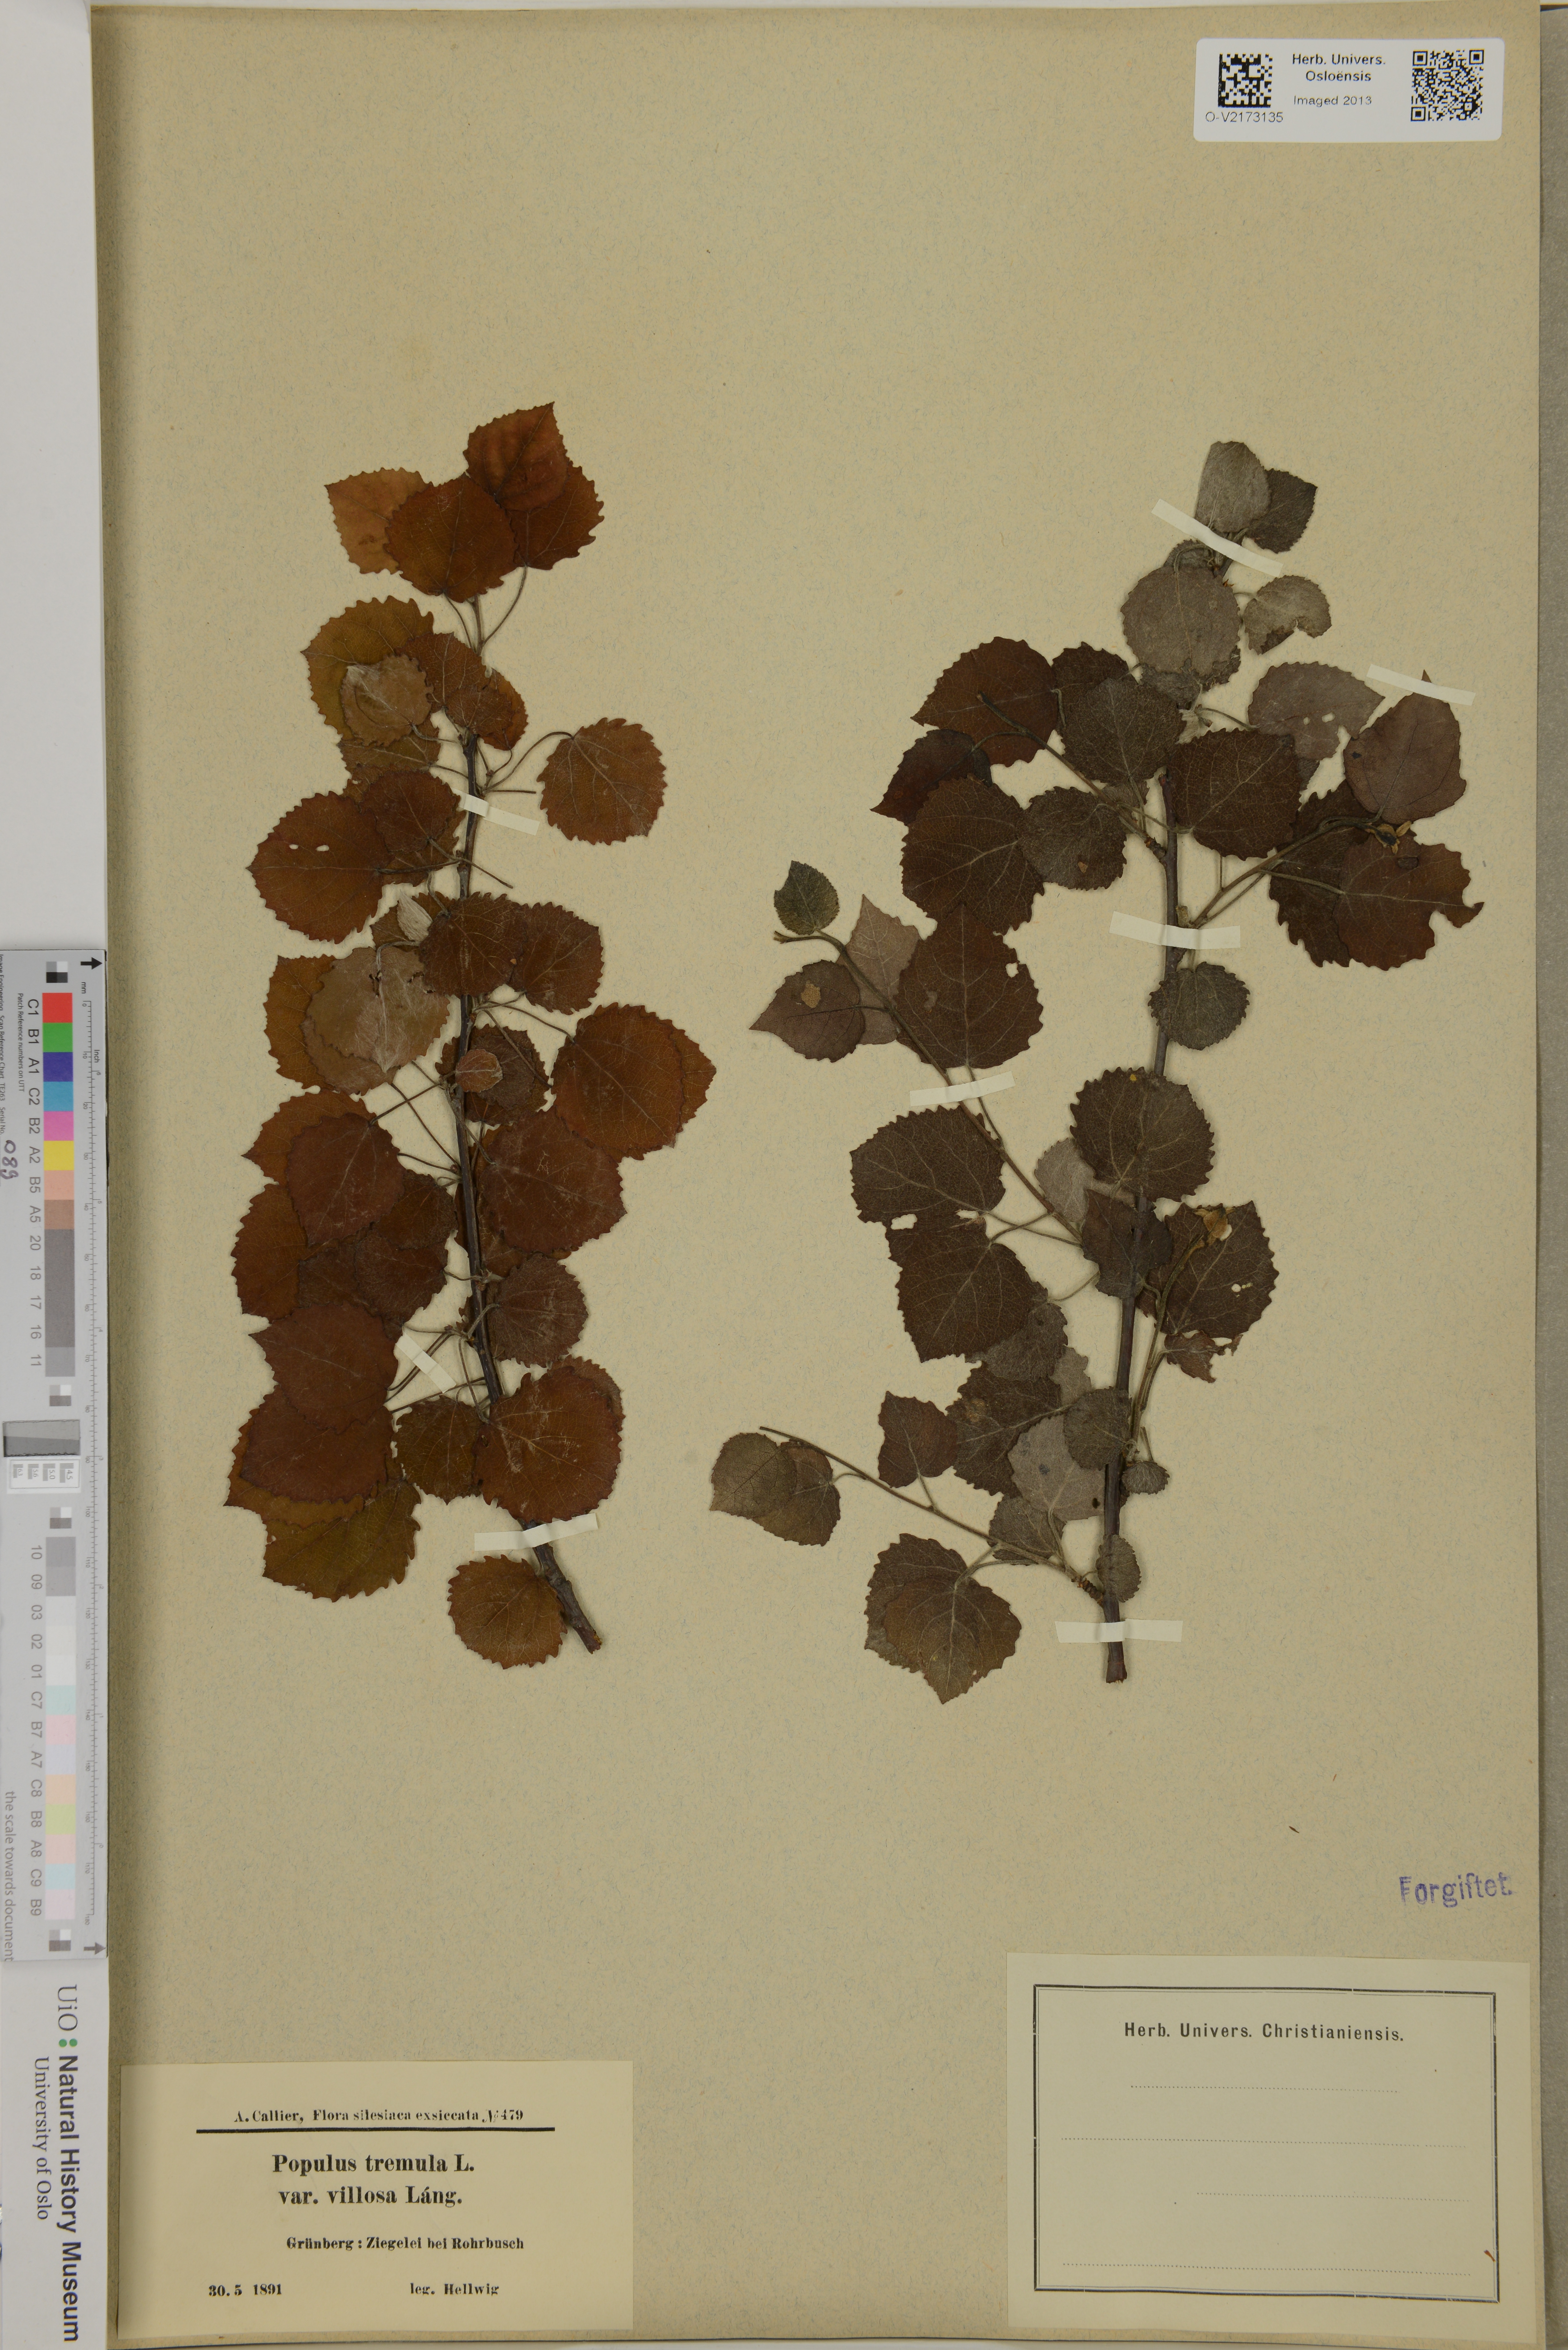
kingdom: Plantae
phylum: Tracheophyta
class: Magnoliopsida
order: Malpighiales
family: Salicaceae
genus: Populus
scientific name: Populus tremula
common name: European aspen
